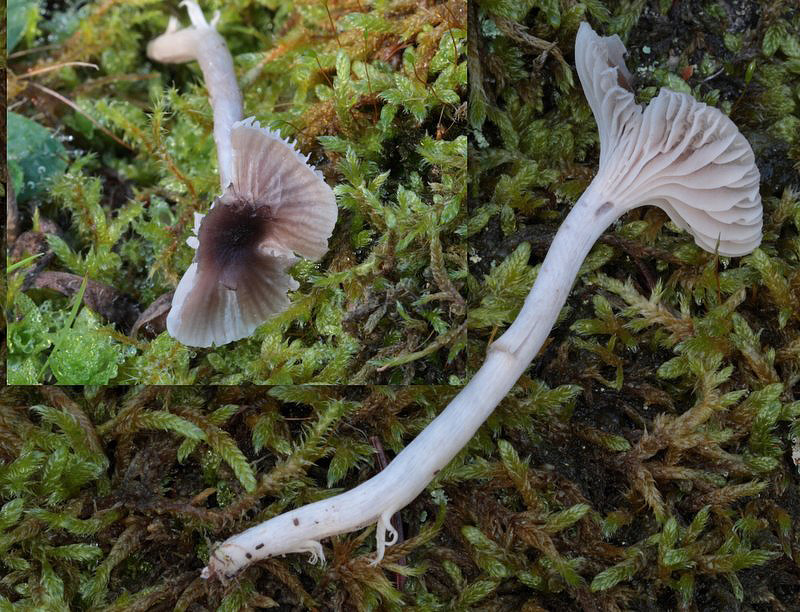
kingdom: Fungi
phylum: Basidiomycota
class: Agaricomycetes
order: Agaricales
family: Hygrophoraceae
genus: Cuphophyllus
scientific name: Cuphophyllus
